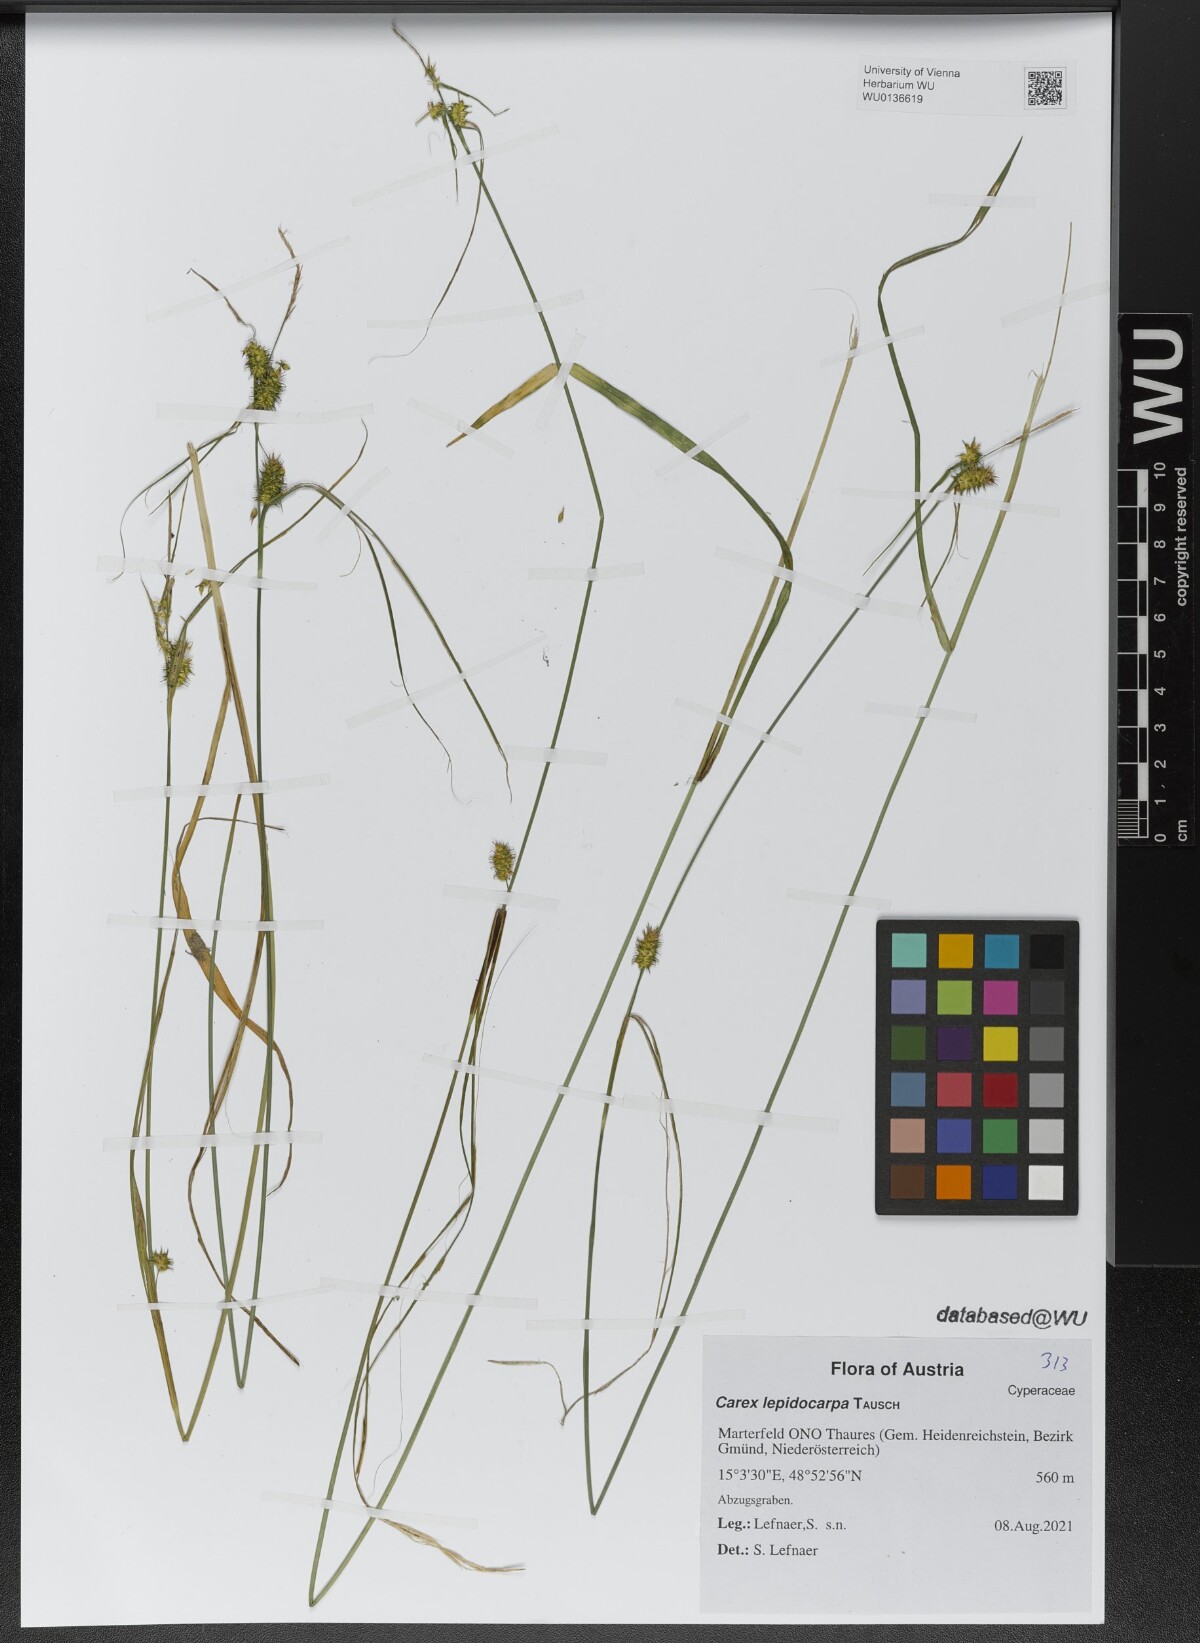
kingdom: Plantae
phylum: Tracheophyta
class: Liliopsida
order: Poales
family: Cyperaceae
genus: Carex
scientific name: Carex lepidocarpa
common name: Long-stalked yellow-sedge
